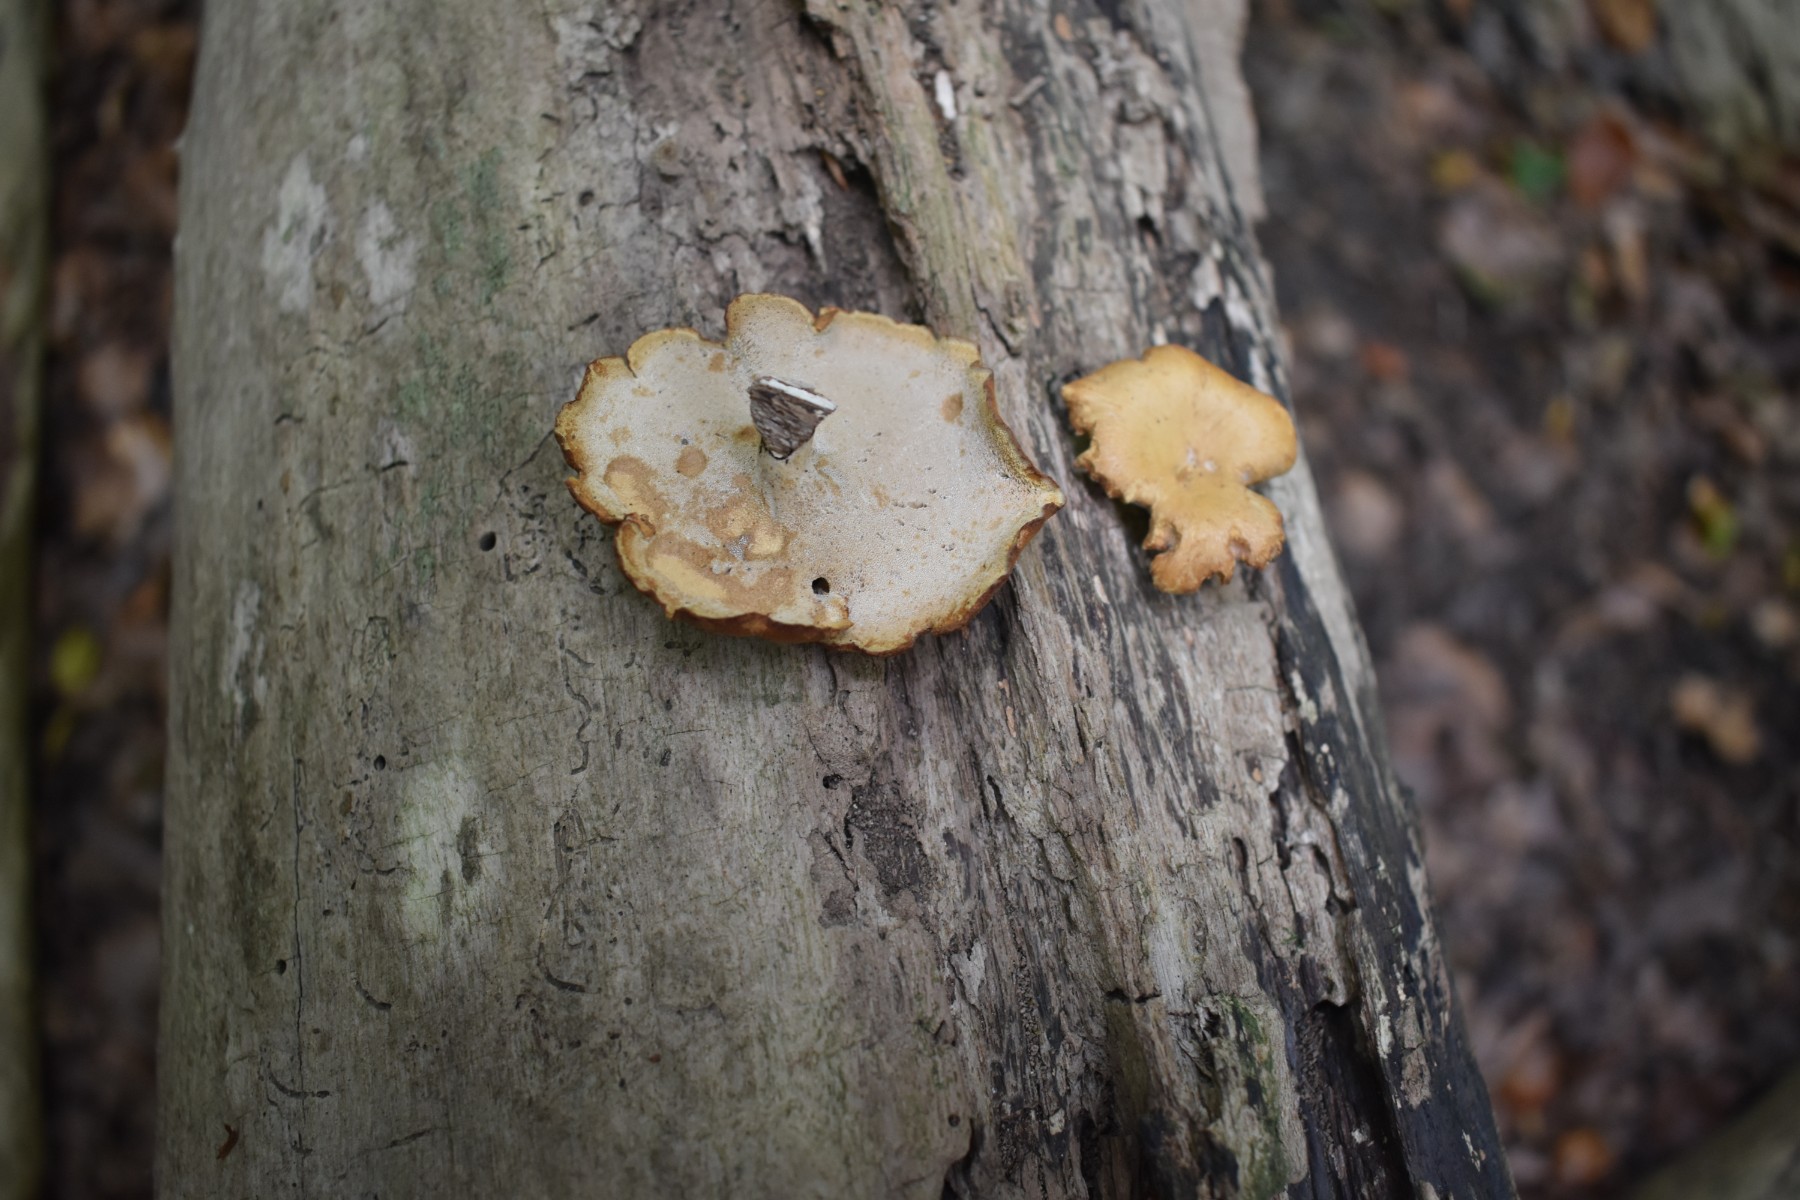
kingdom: Fungi
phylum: Basidiomycota
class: Agaricomycetes
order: Polyporales
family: Polyporaceae
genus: Cerioporus
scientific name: Cerioporus varius
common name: foranderlig stilkporesvamp
